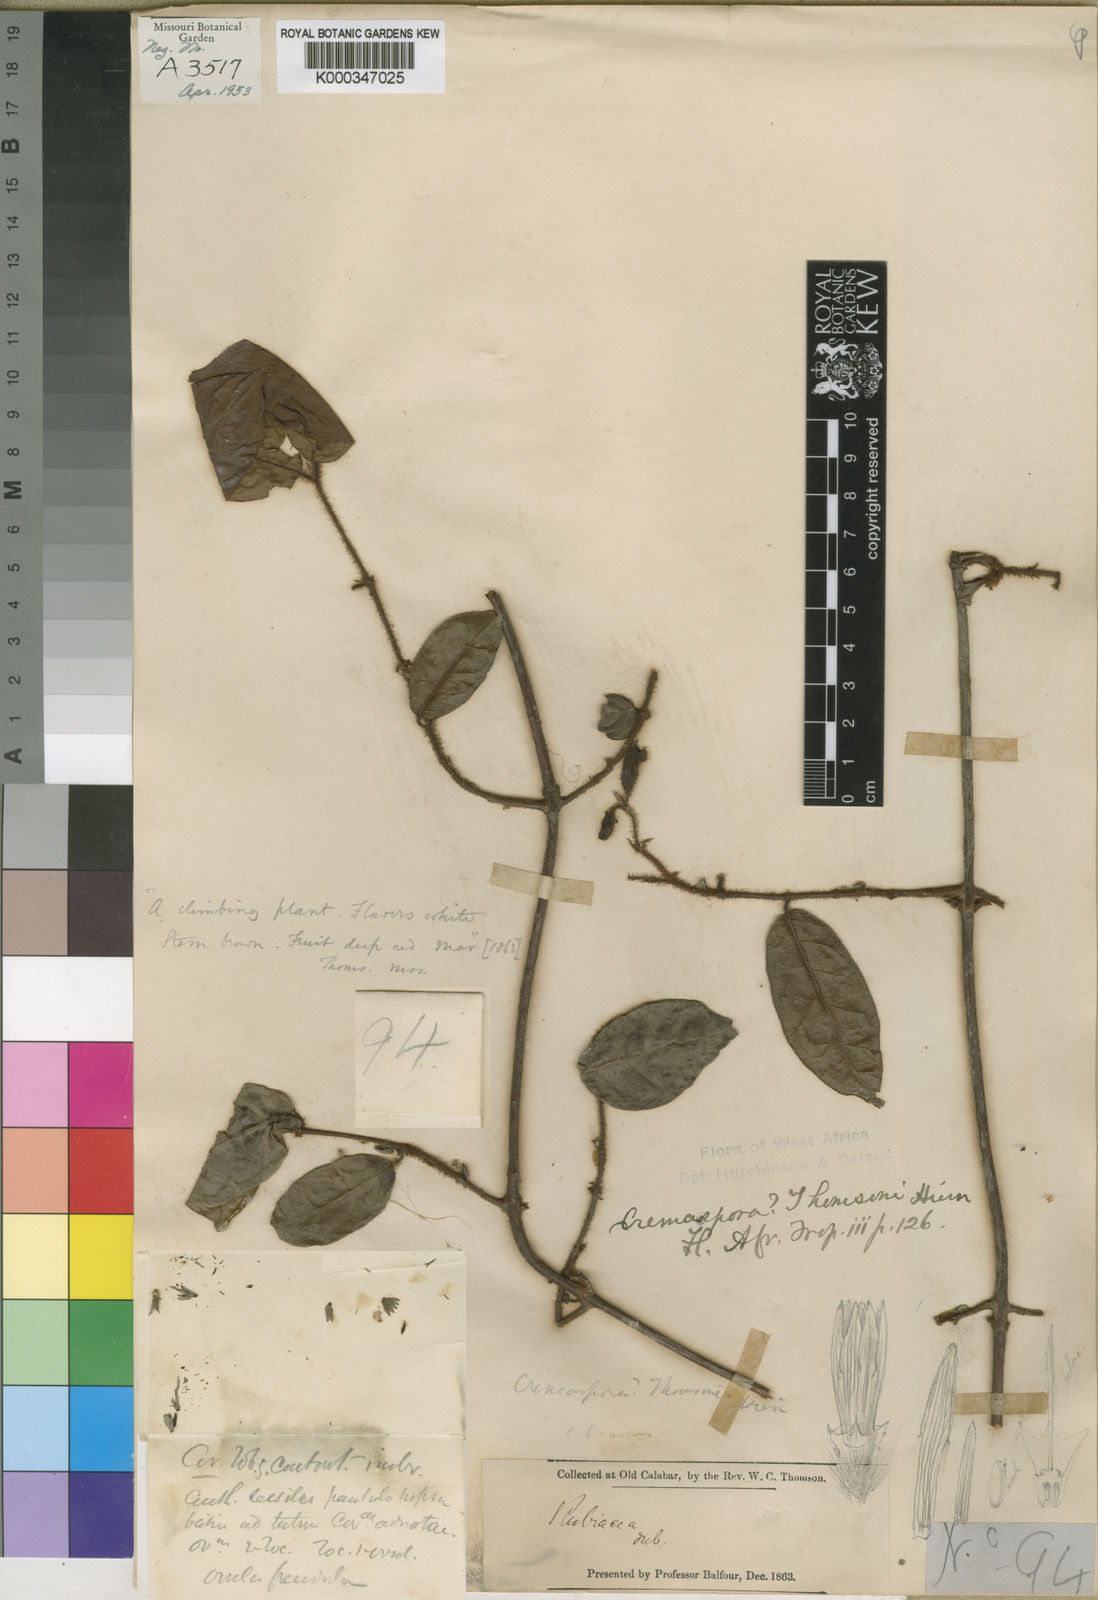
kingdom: Plantae
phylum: Tracheophyta
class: Magnoliopsida
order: Gentianales
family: Rubiaceae
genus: Cremaspora
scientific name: Cremaspora thomsonii
